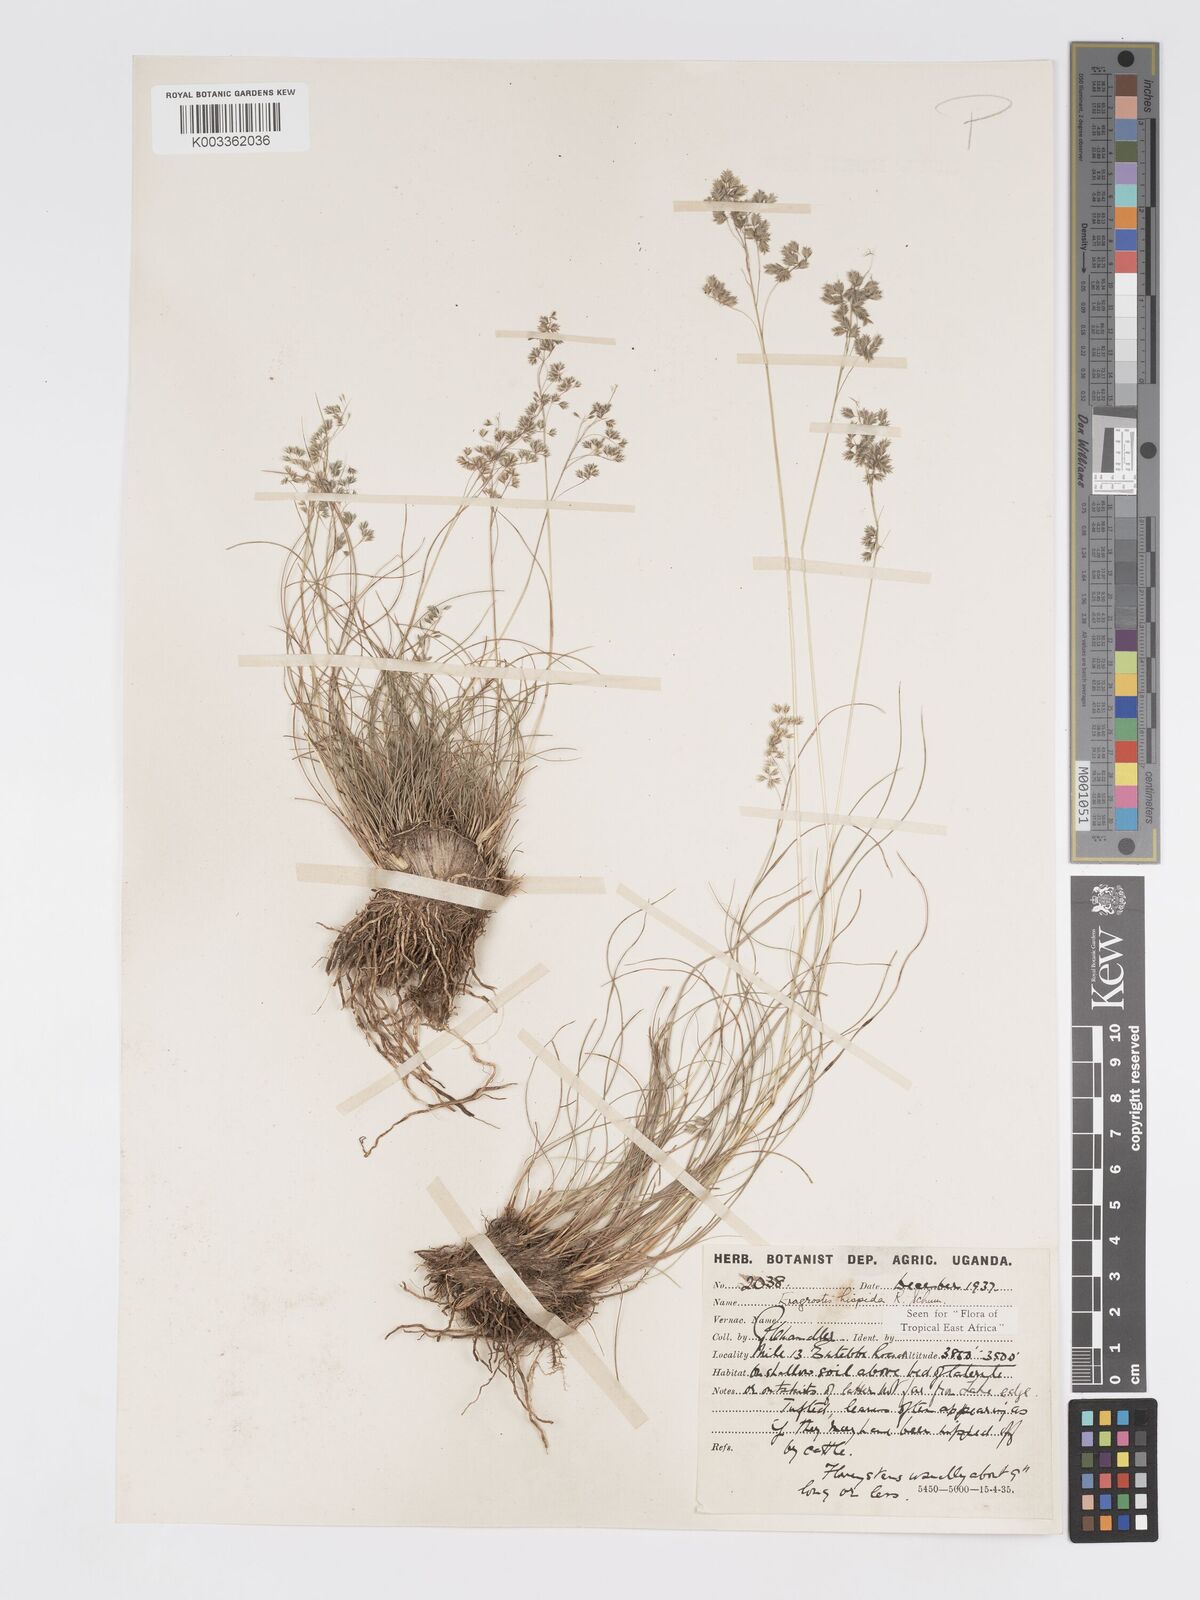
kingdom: Plantae
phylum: Tracheophyta
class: Liliopsida
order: Poales
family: Poaceae
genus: Eragrostis
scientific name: Eragrostis hispida
